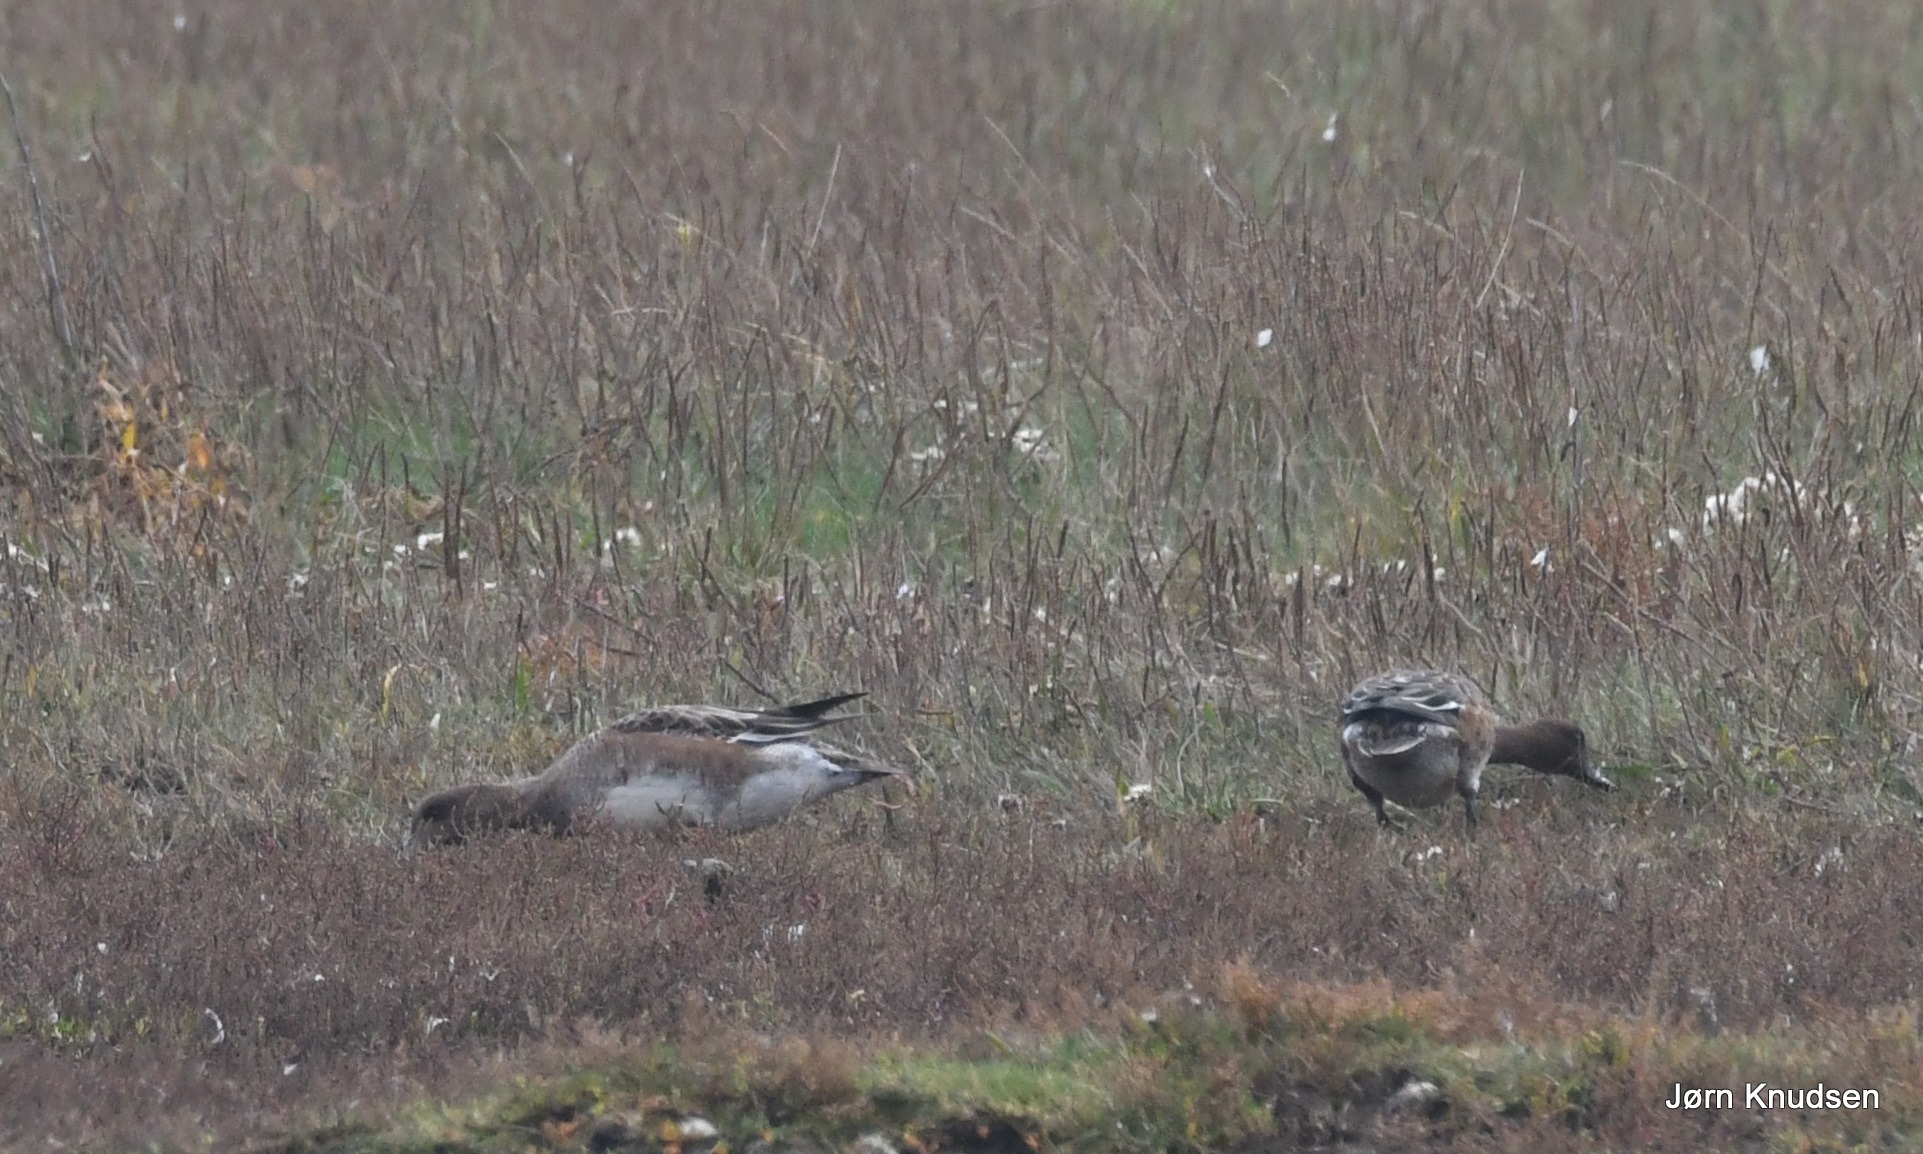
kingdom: Animalia
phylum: Chordata
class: Aves
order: Anseriformes
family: Anatidae
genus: Mareca
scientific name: Mareca penelope
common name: Pibeand
